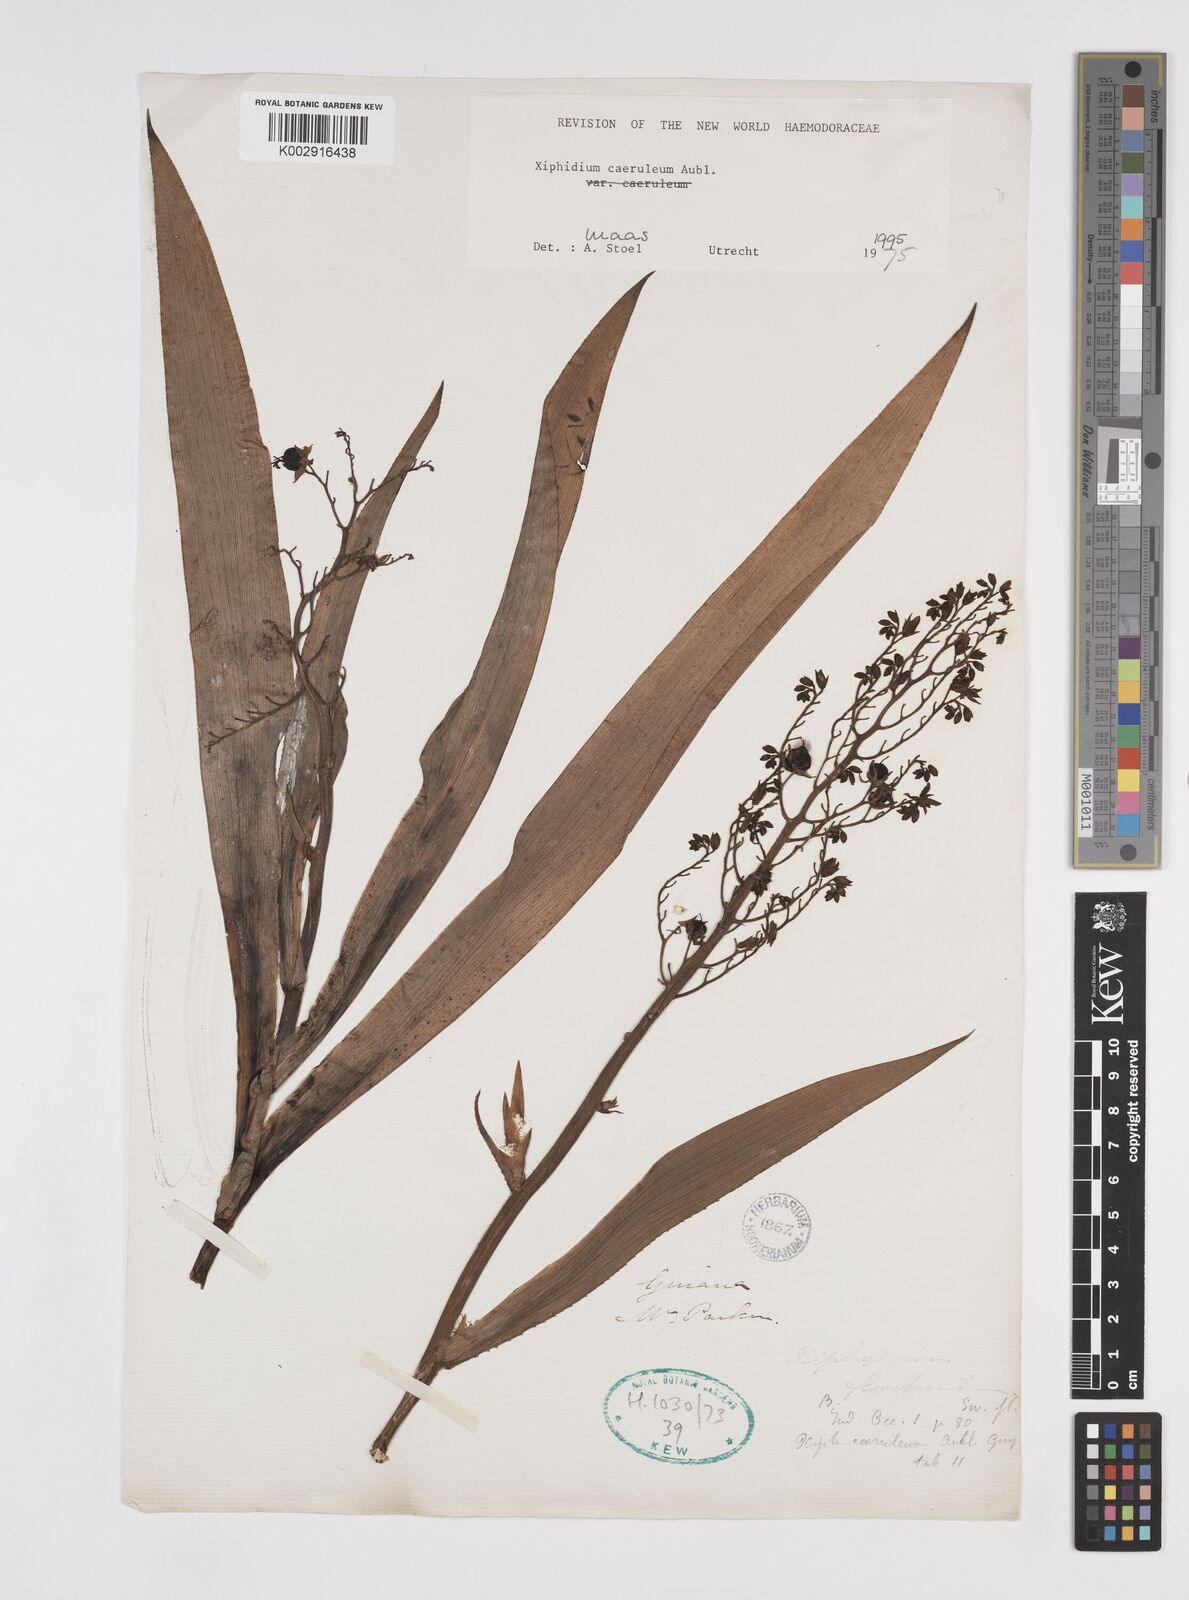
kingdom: Plantae
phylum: Tracheophyta
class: Liliopsida
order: Commelinales
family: Haemodoraceae
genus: Xiphidium
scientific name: Xiphidium caeruleum
